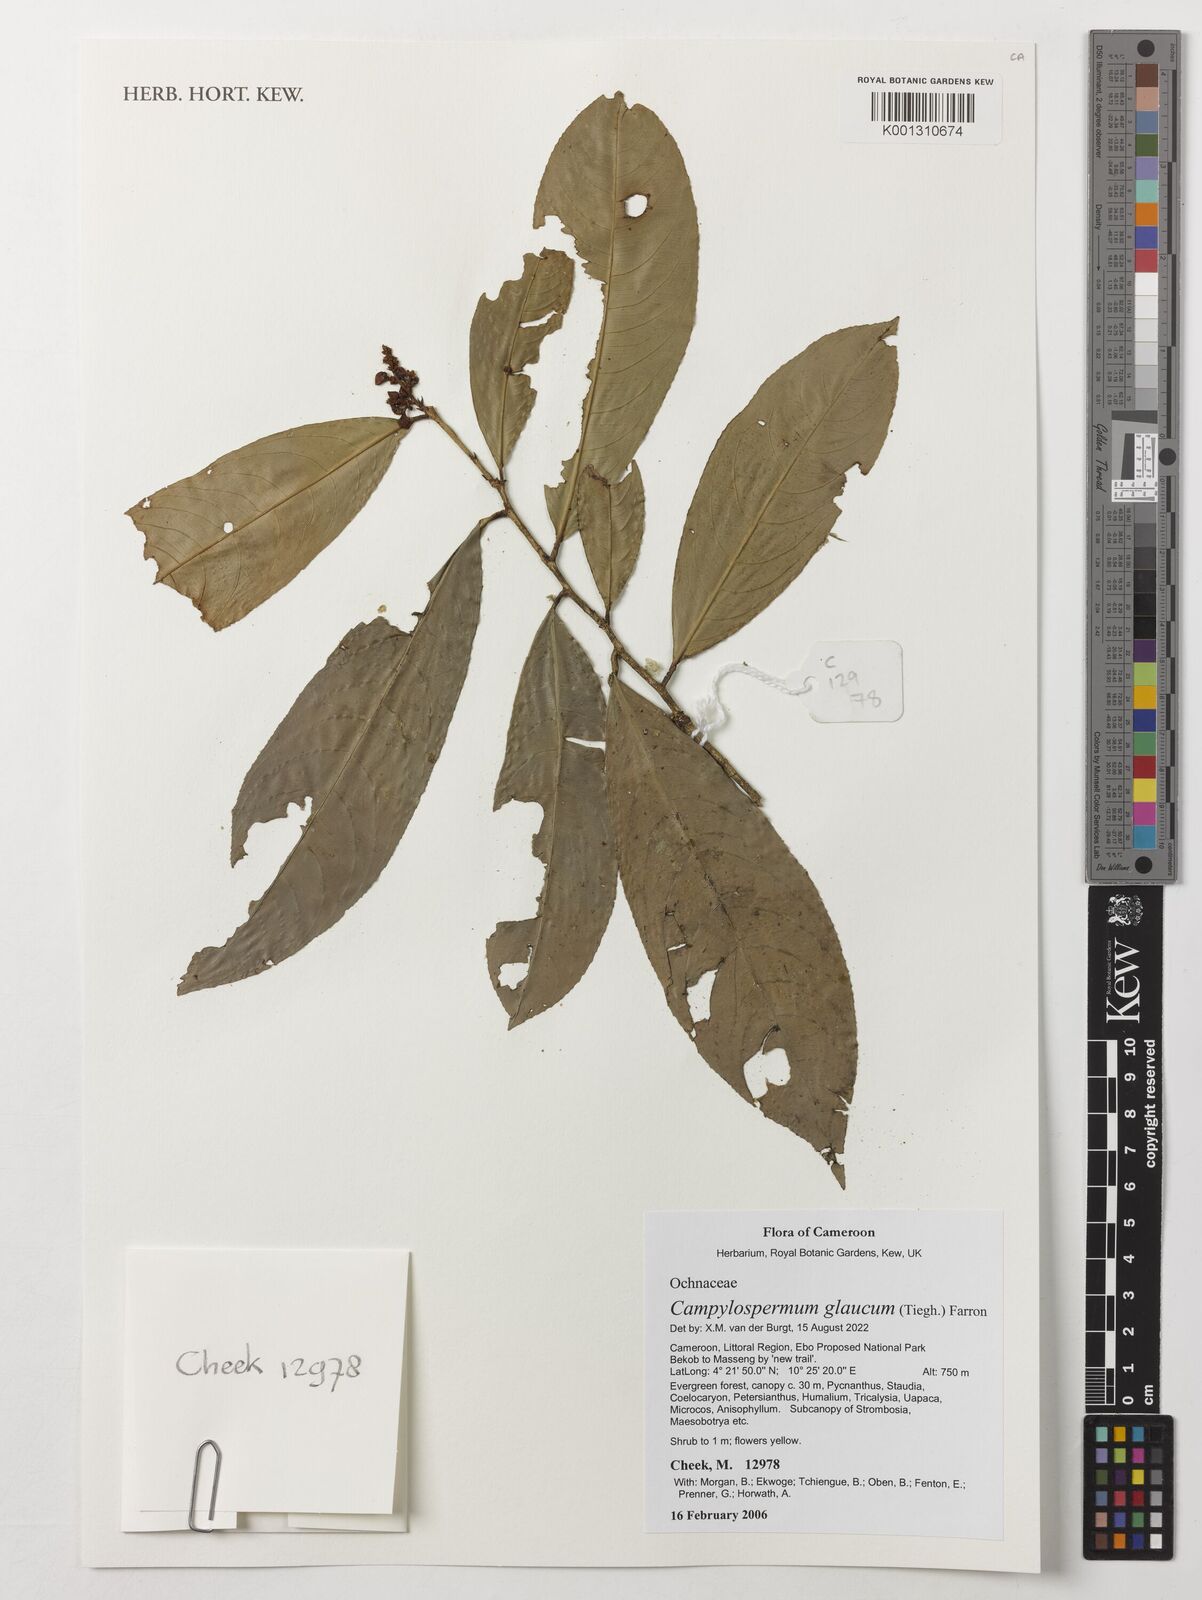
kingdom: Plantae
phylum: Tracheophyta
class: Magnoliopsida
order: Malpighiales
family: Ochnaceae
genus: Campylospermum
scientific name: Campylospermum glaucum
